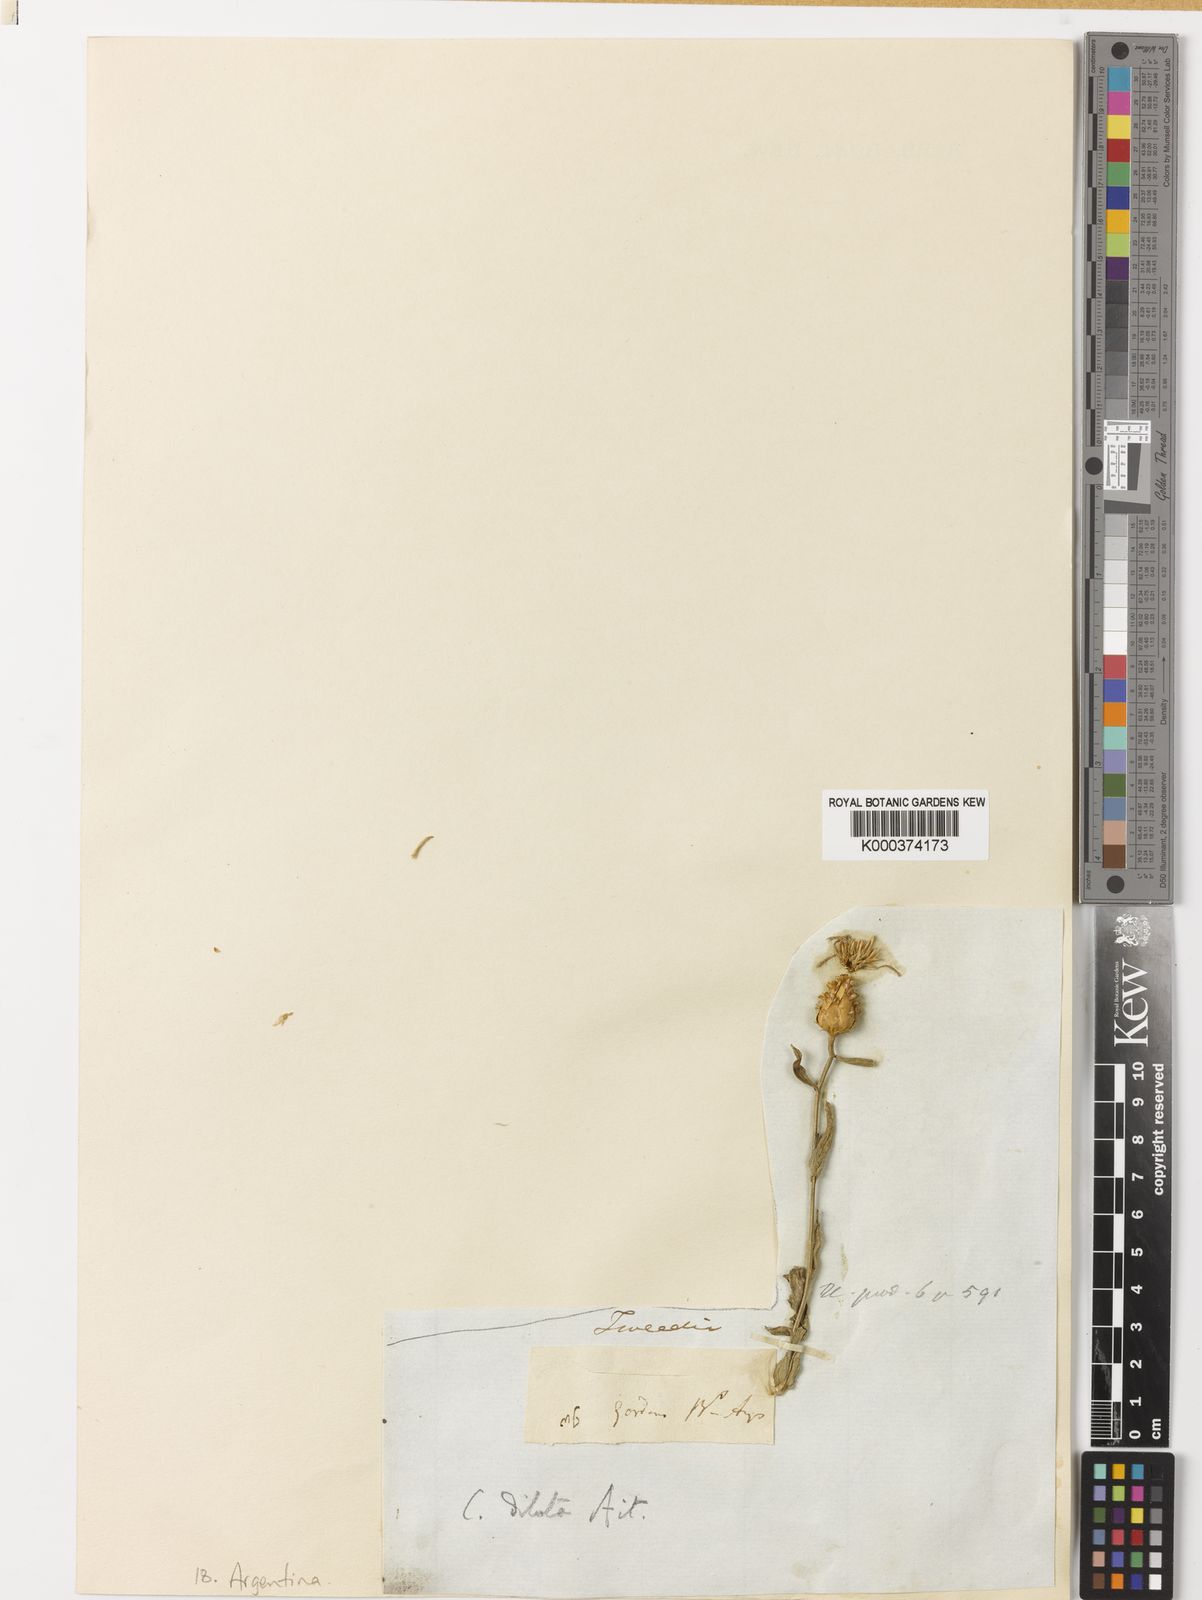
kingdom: Plantae
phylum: Tracheophyta
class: Magnoliopsida
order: Asterales
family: Asteraceae
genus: Centaurea
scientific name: Centaurea diluta
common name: Lesser star-thistle
